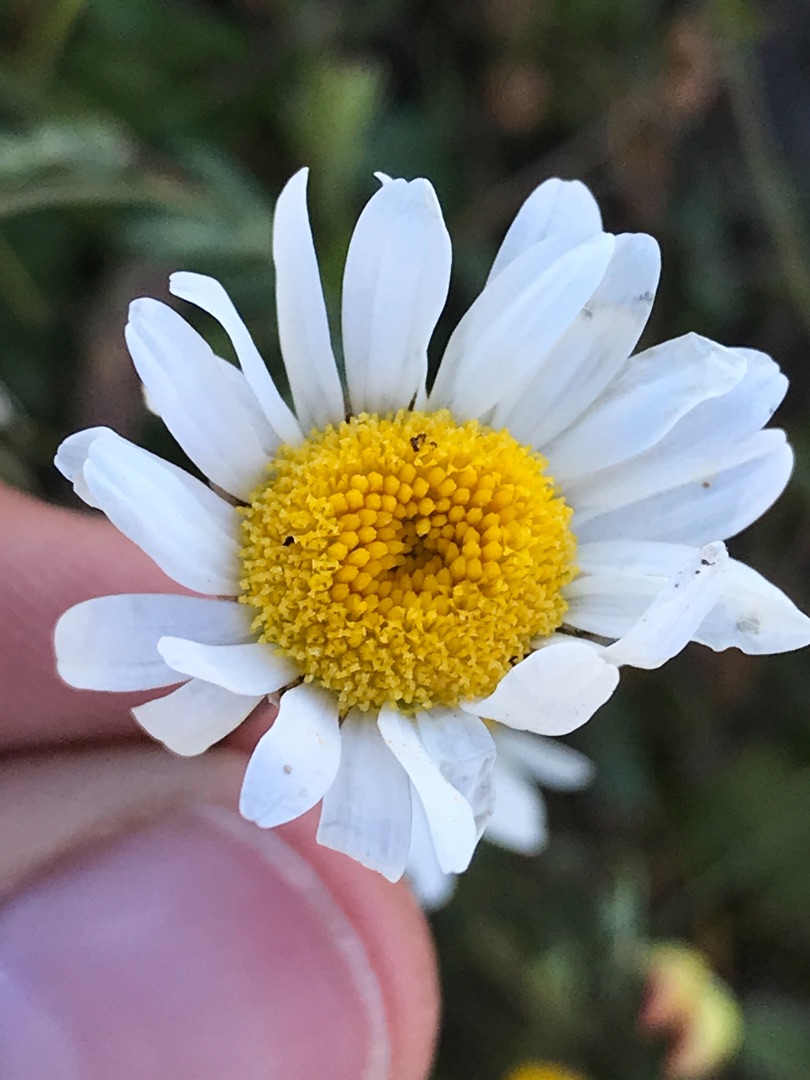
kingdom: Plantae
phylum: Tracheophyta
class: Magnoliopsida
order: Asterales
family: Asteraceae
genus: Leucanthemum
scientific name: Leucanthemum vulgare
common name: Hvid okseøje
